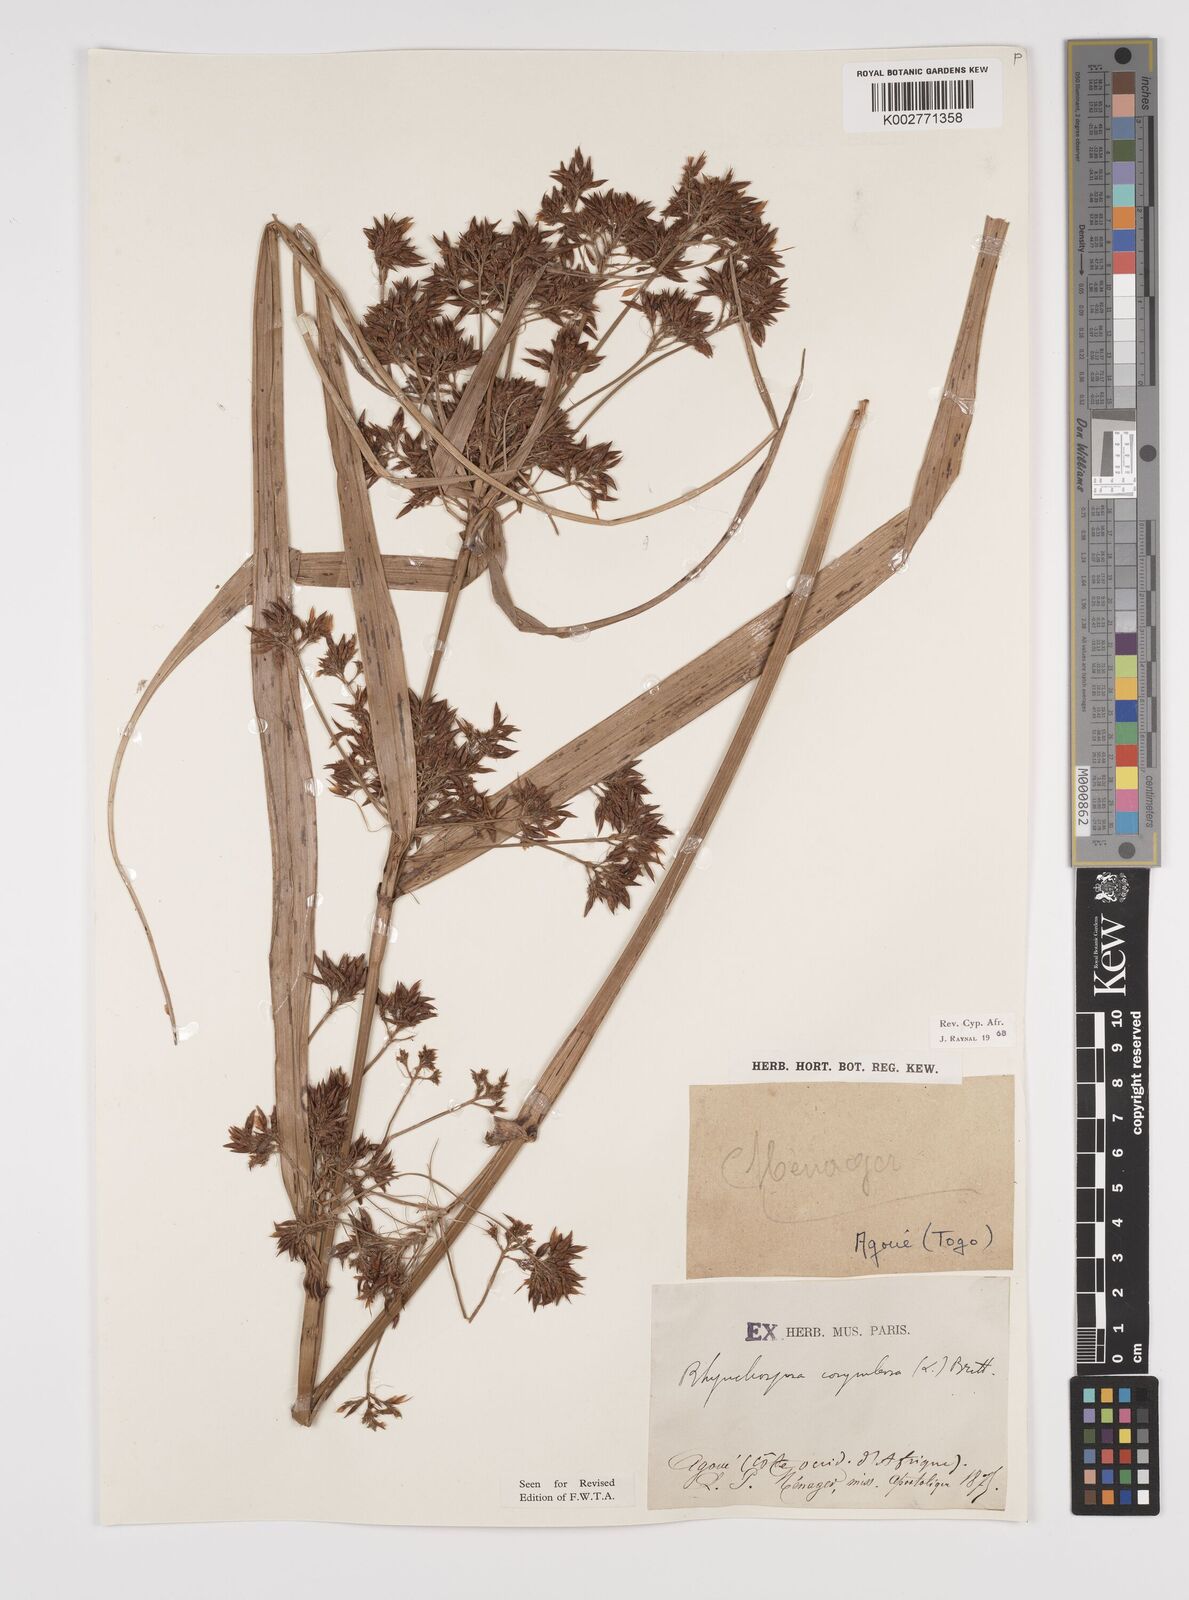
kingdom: Plantae
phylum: Tracheophyta
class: Liliopsida
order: Poales
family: Cyperaceae
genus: Rhynchospora
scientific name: Rhynchospora corymbosa
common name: Golden beak sedge
